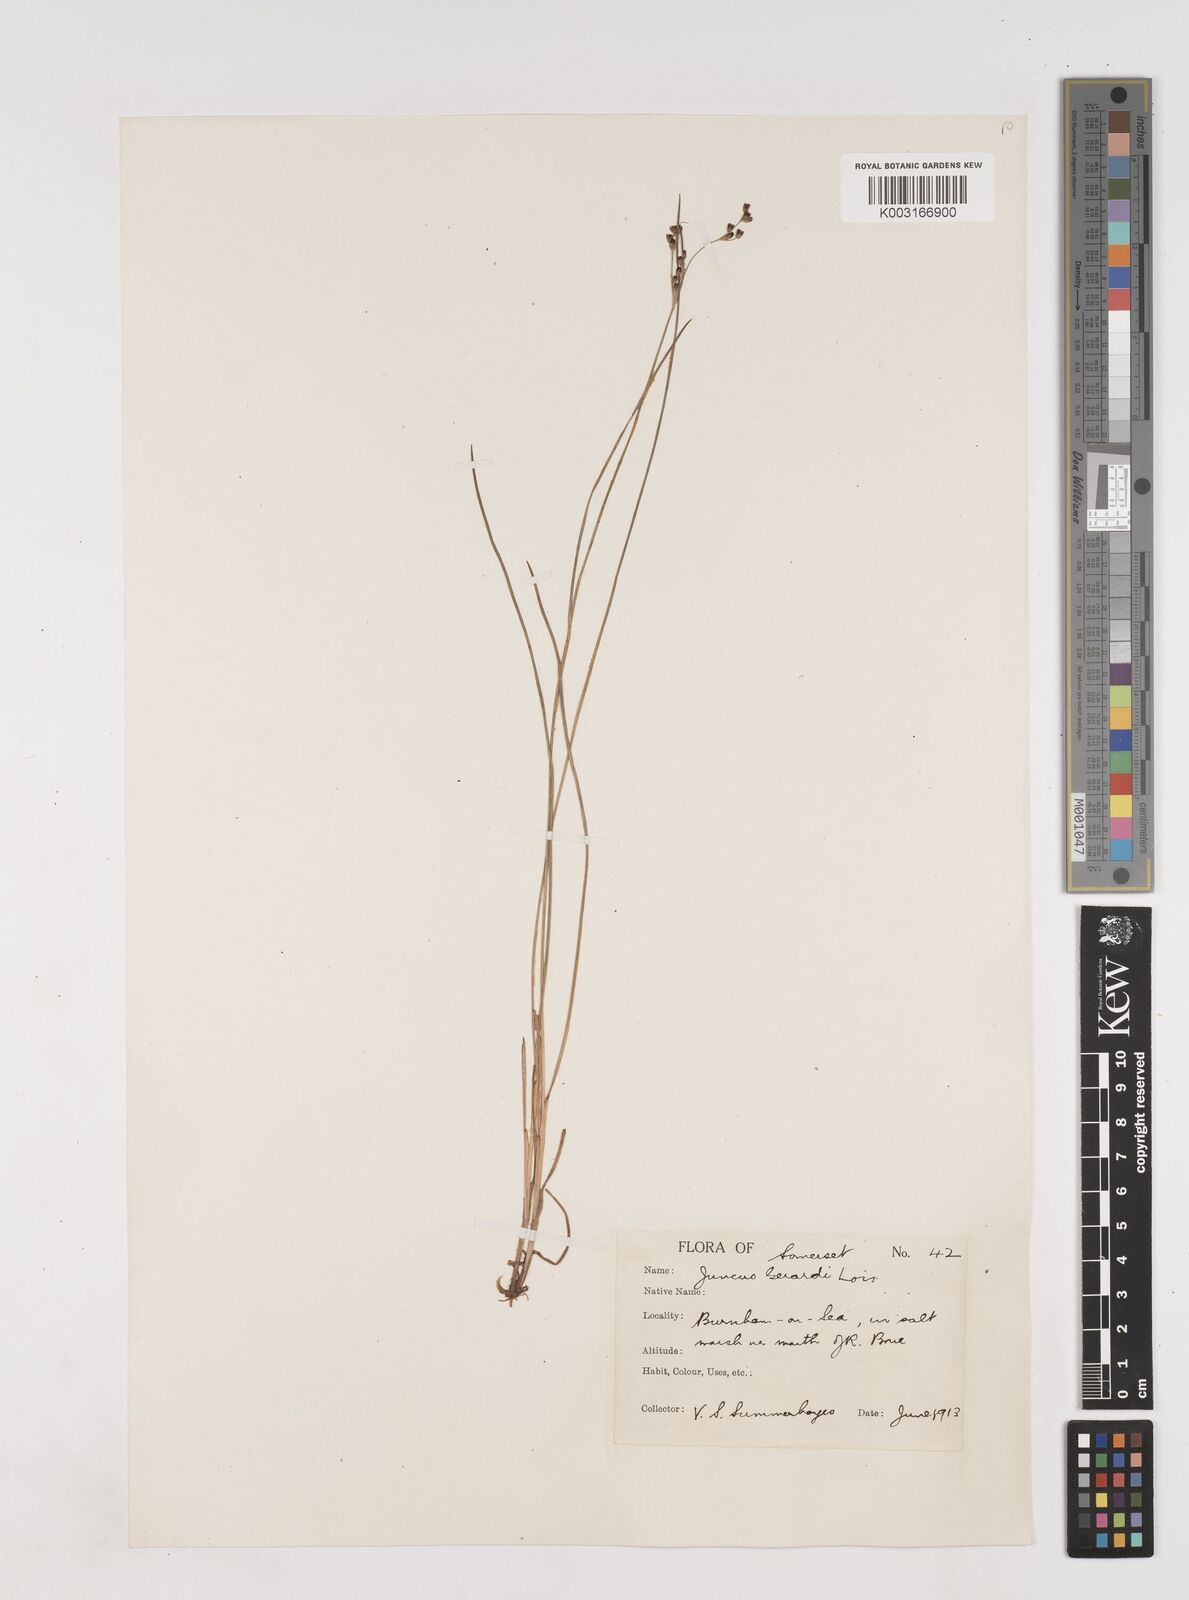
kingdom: Plantae
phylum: Tracheophyta
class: Liliopsida
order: Poales
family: Juncaceae
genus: Juncus
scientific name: Juncus gerardi
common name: Saltmarsh rush
